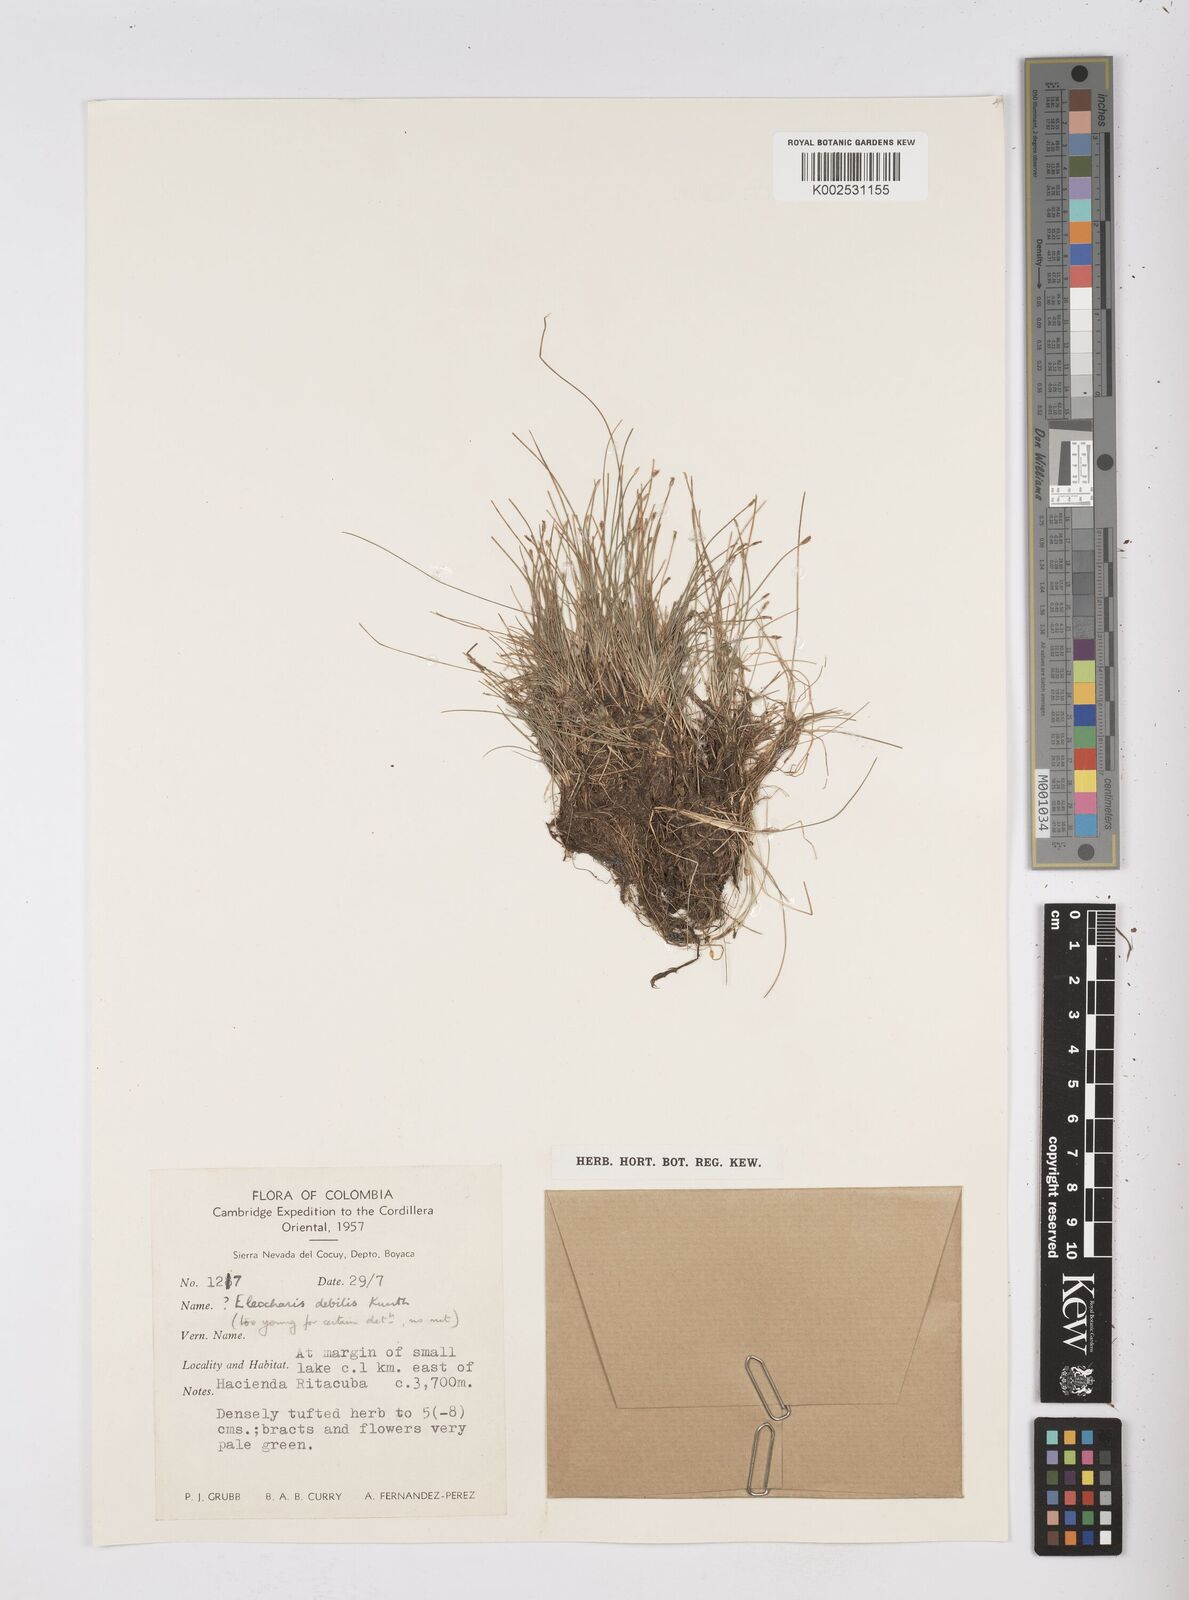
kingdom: Plantae
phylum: Tracheophyta
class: Liliopsida
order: Poales
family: Cyperaceae
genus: Eleocharis
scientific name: Eleocharis debilis
